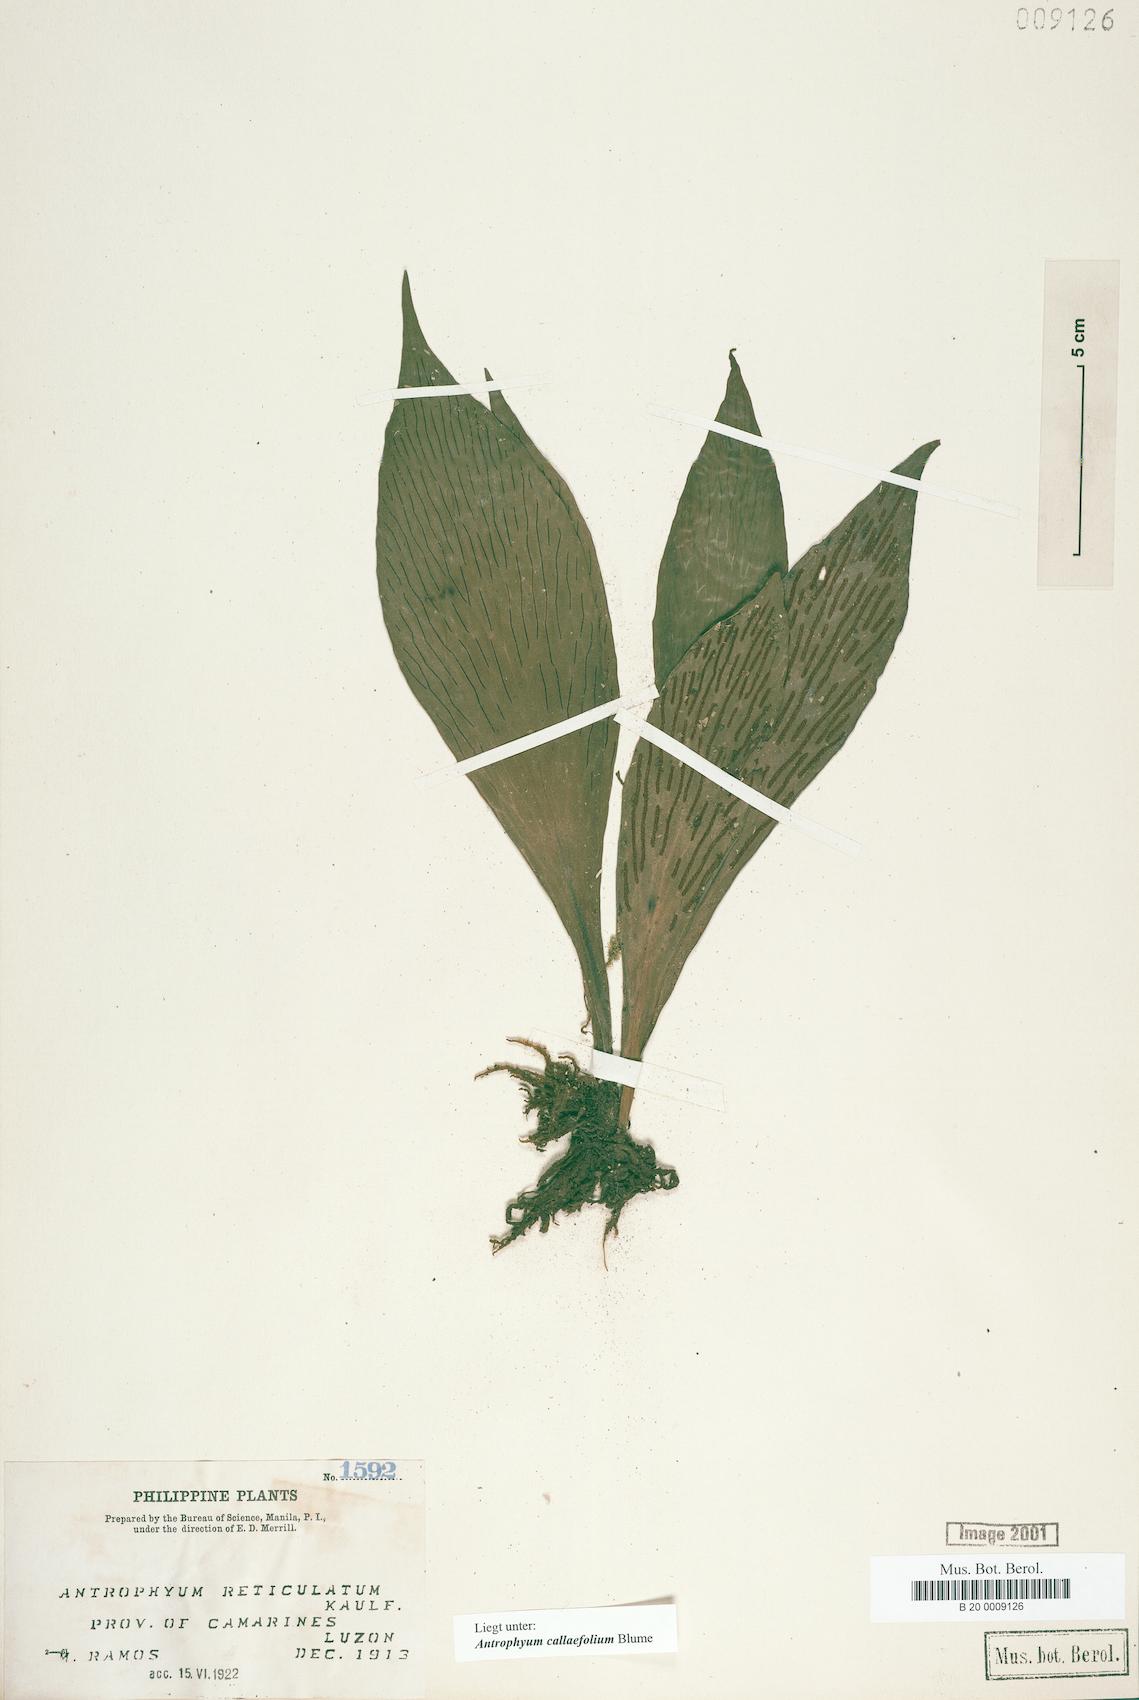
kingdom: Plantae
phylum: Tracheophyta
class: Polypodiopsida
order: Polypodiales
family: Pteridaceae
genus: Antrophyum
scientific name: Antrophyum callifolium
